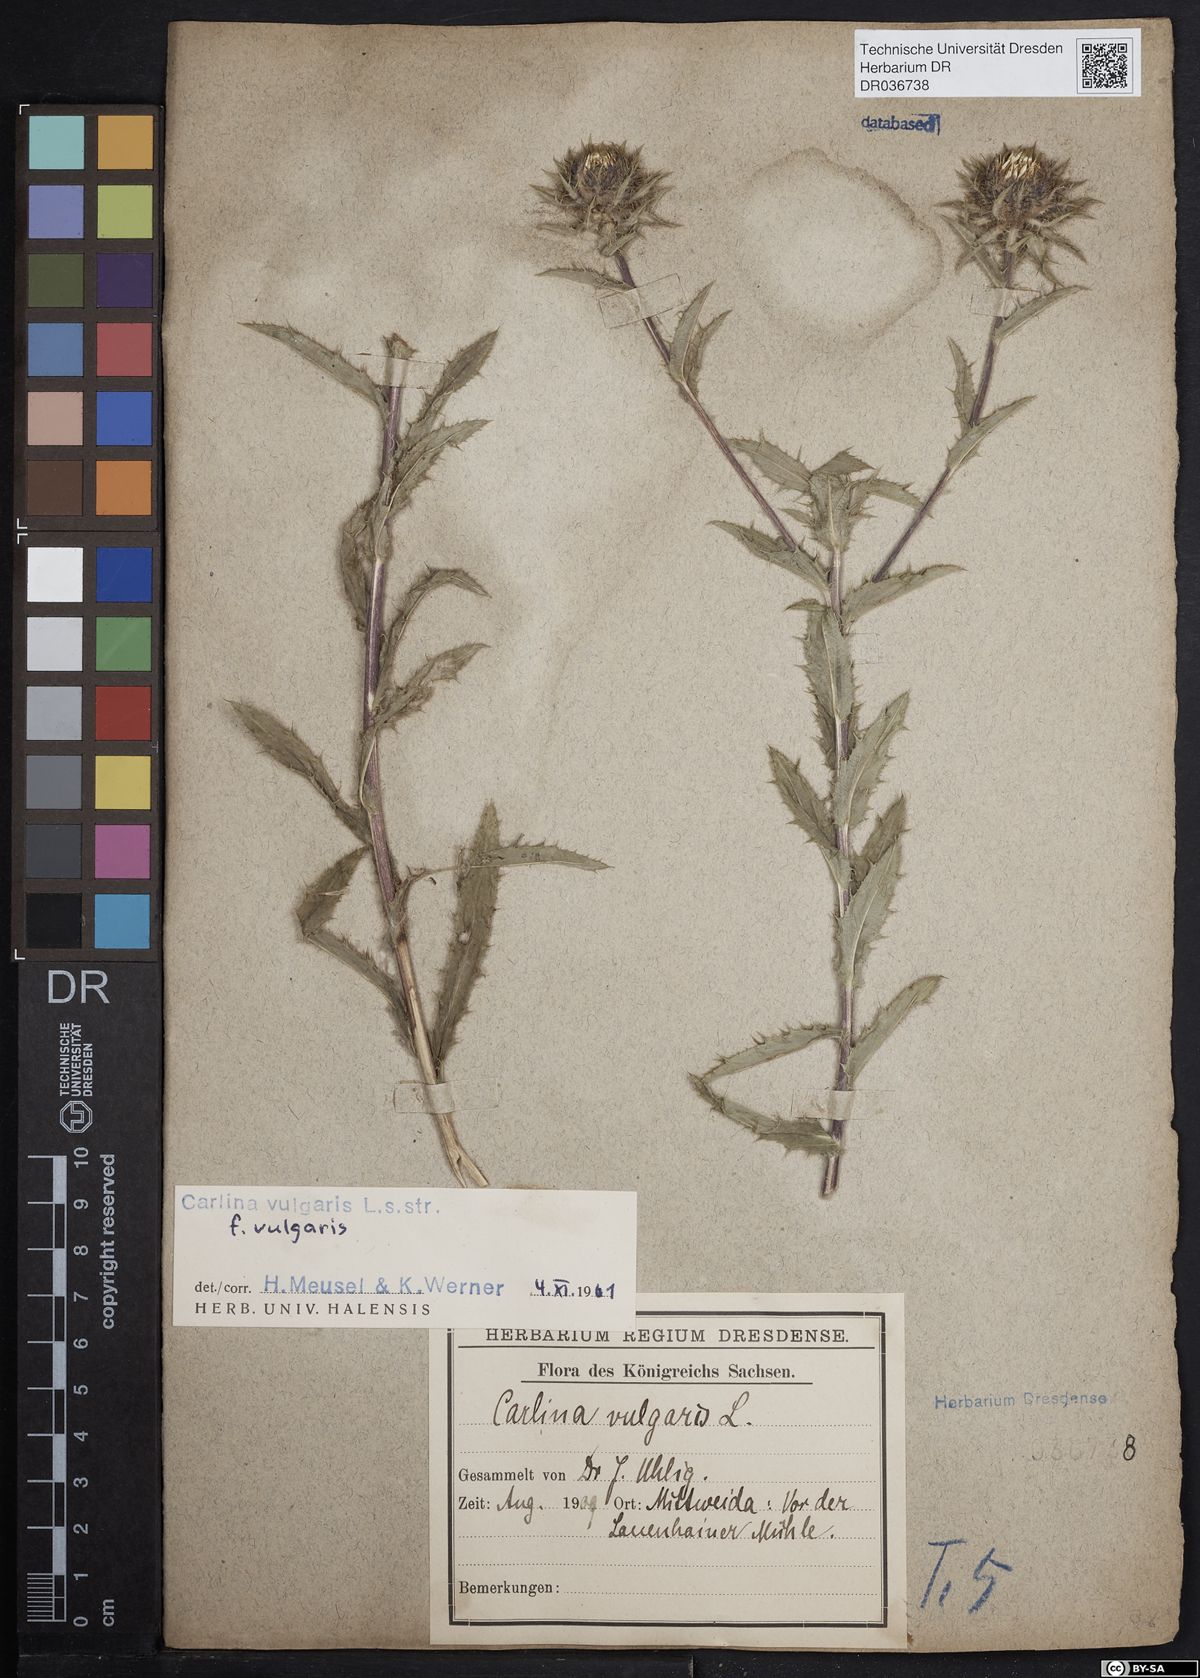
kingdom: Plantae
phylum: Tracheophyta
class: Magnoliopsida
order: Asterales
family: Asteraceae
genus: Carlina
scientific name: Carlina vulgaris
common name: Carline thistle
